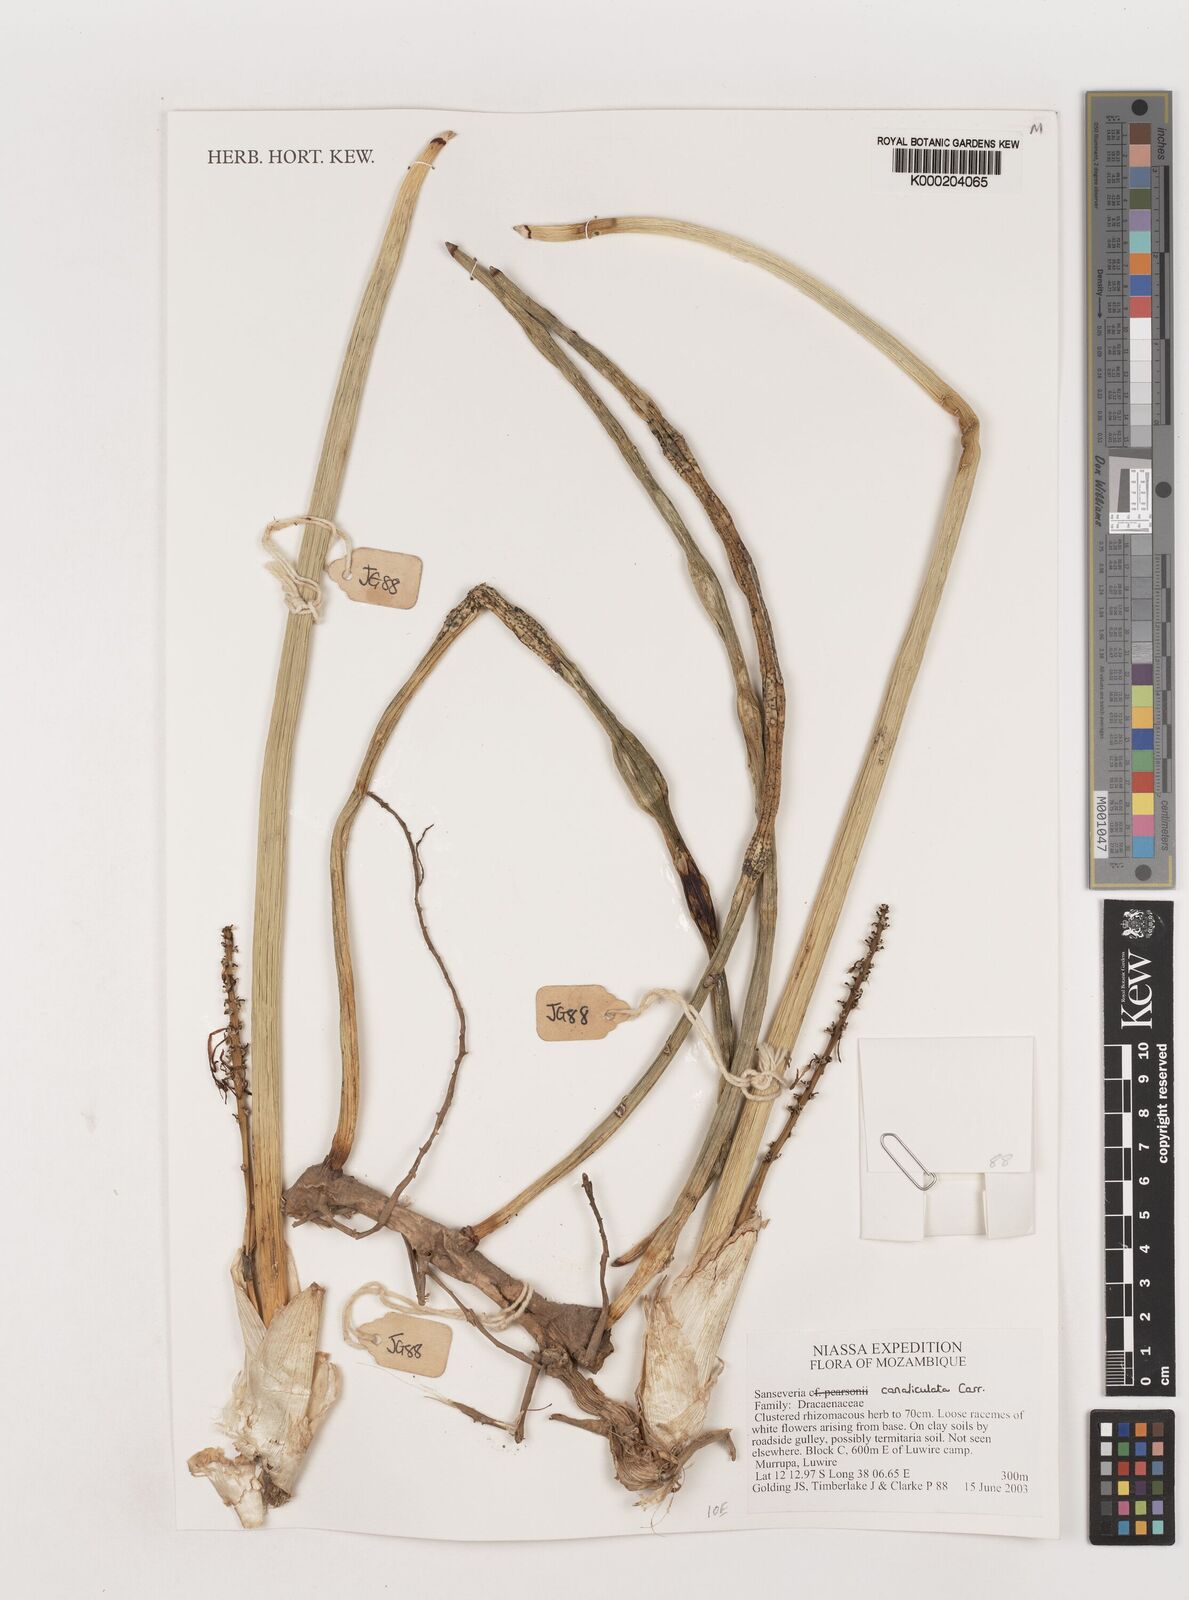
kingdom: Plantae
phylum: Tracheophyta
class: Liliopsida
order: Asparagales
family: Asparagaceae
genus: Dracaena
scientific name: Dracaena
